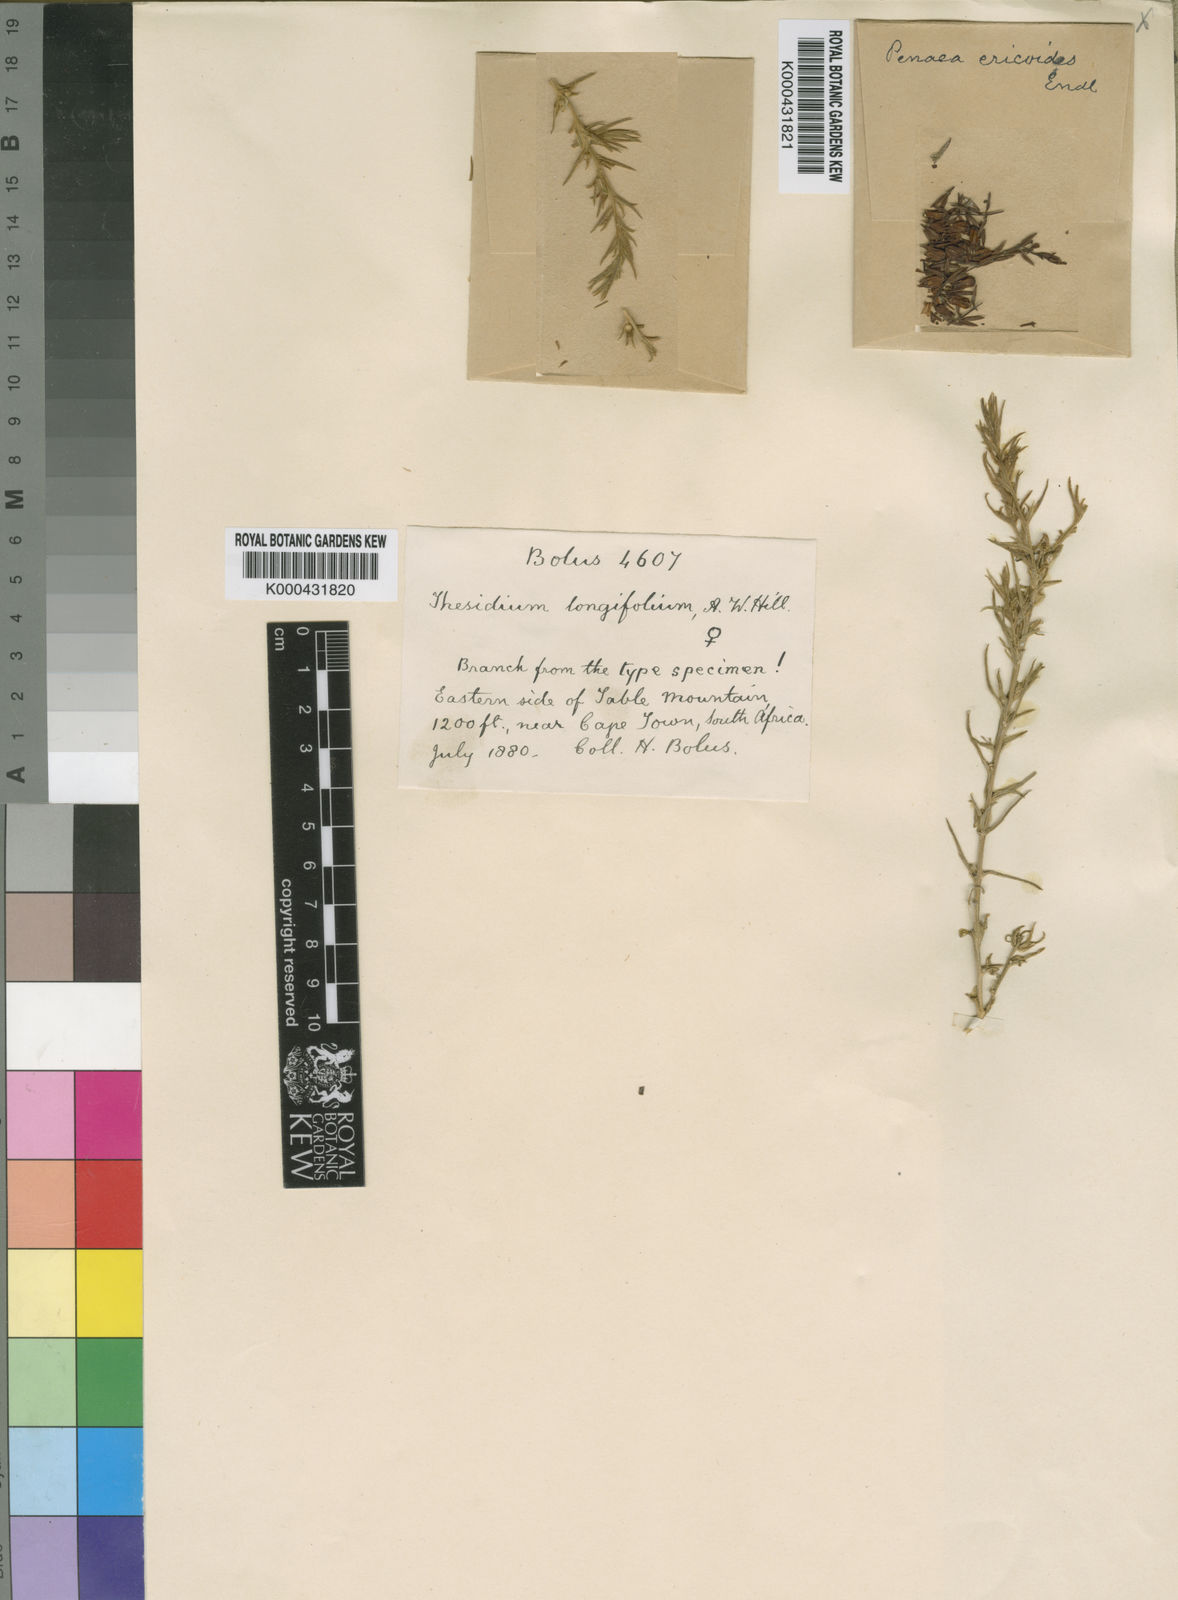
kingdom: Plantae
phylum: Tracheophyta
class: Magnoliopsida
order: Myrtales
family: Penaeaceae
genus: Stylapterus
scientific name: Stylapterus ericoides
